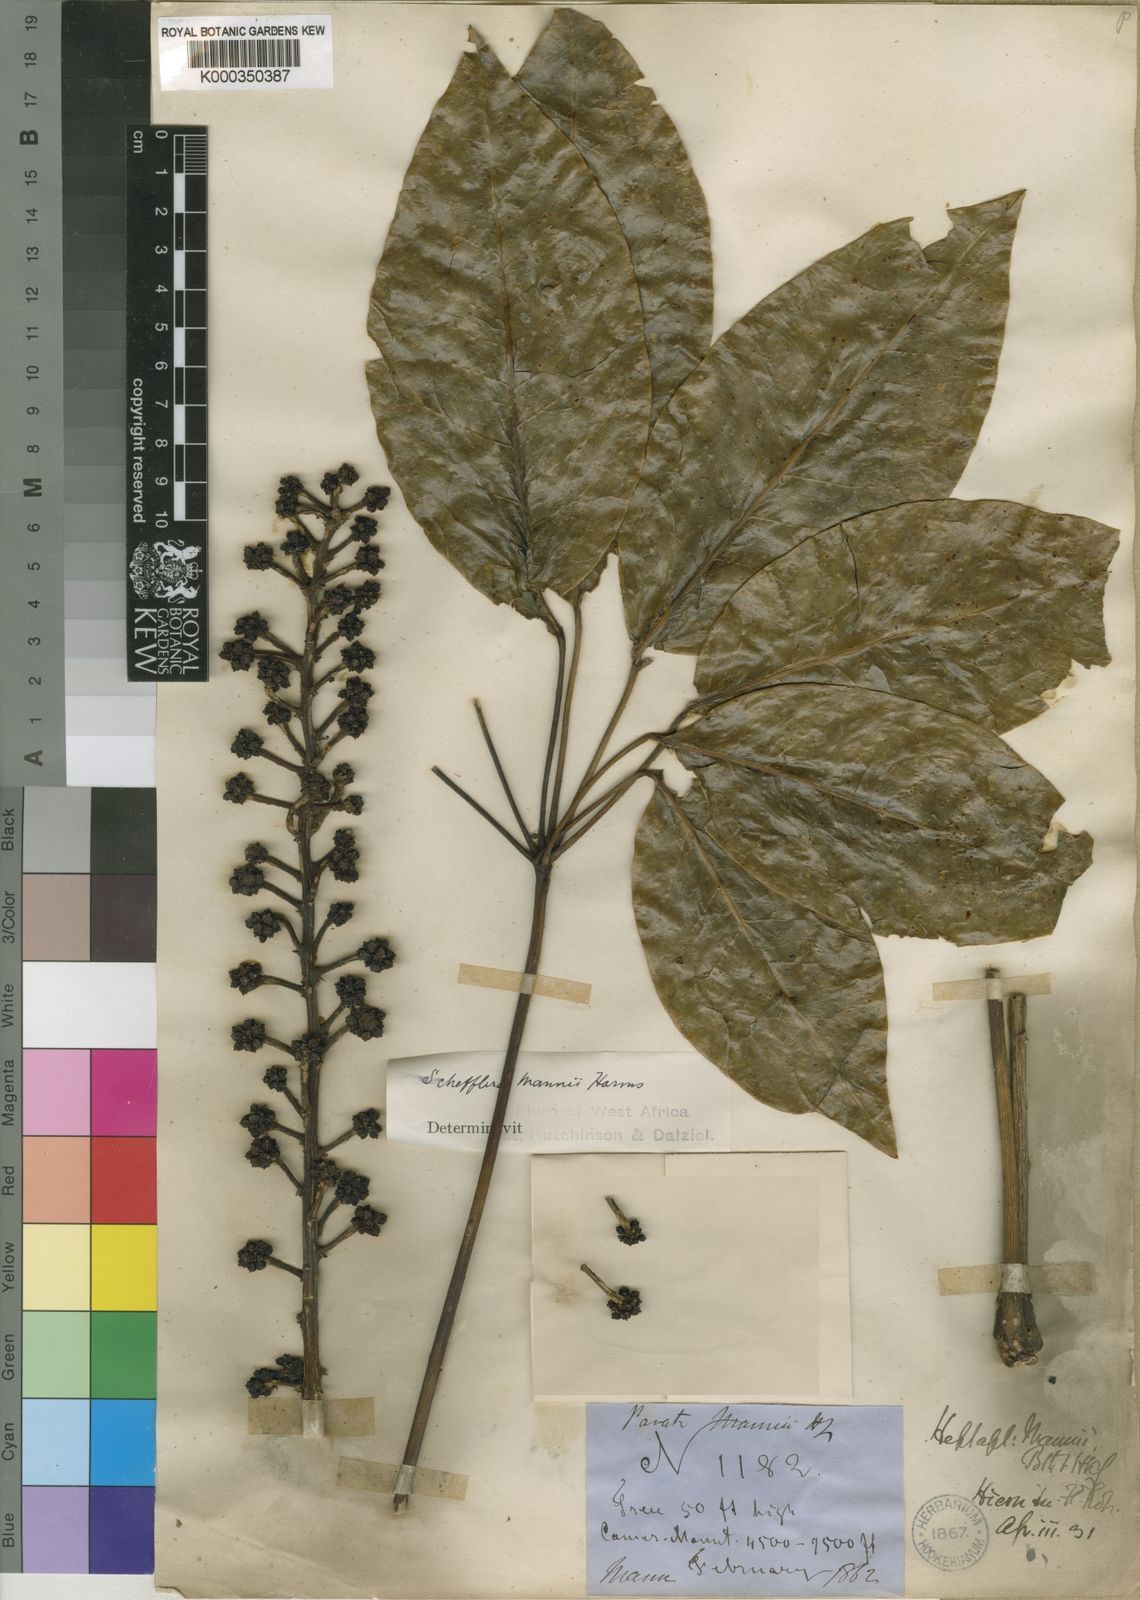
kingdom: Plantae
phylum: Tracheophyta
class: Magnoliopsida
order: Apiales
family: Araliaceae
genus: Astropanax
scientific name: Astropanax mannii
